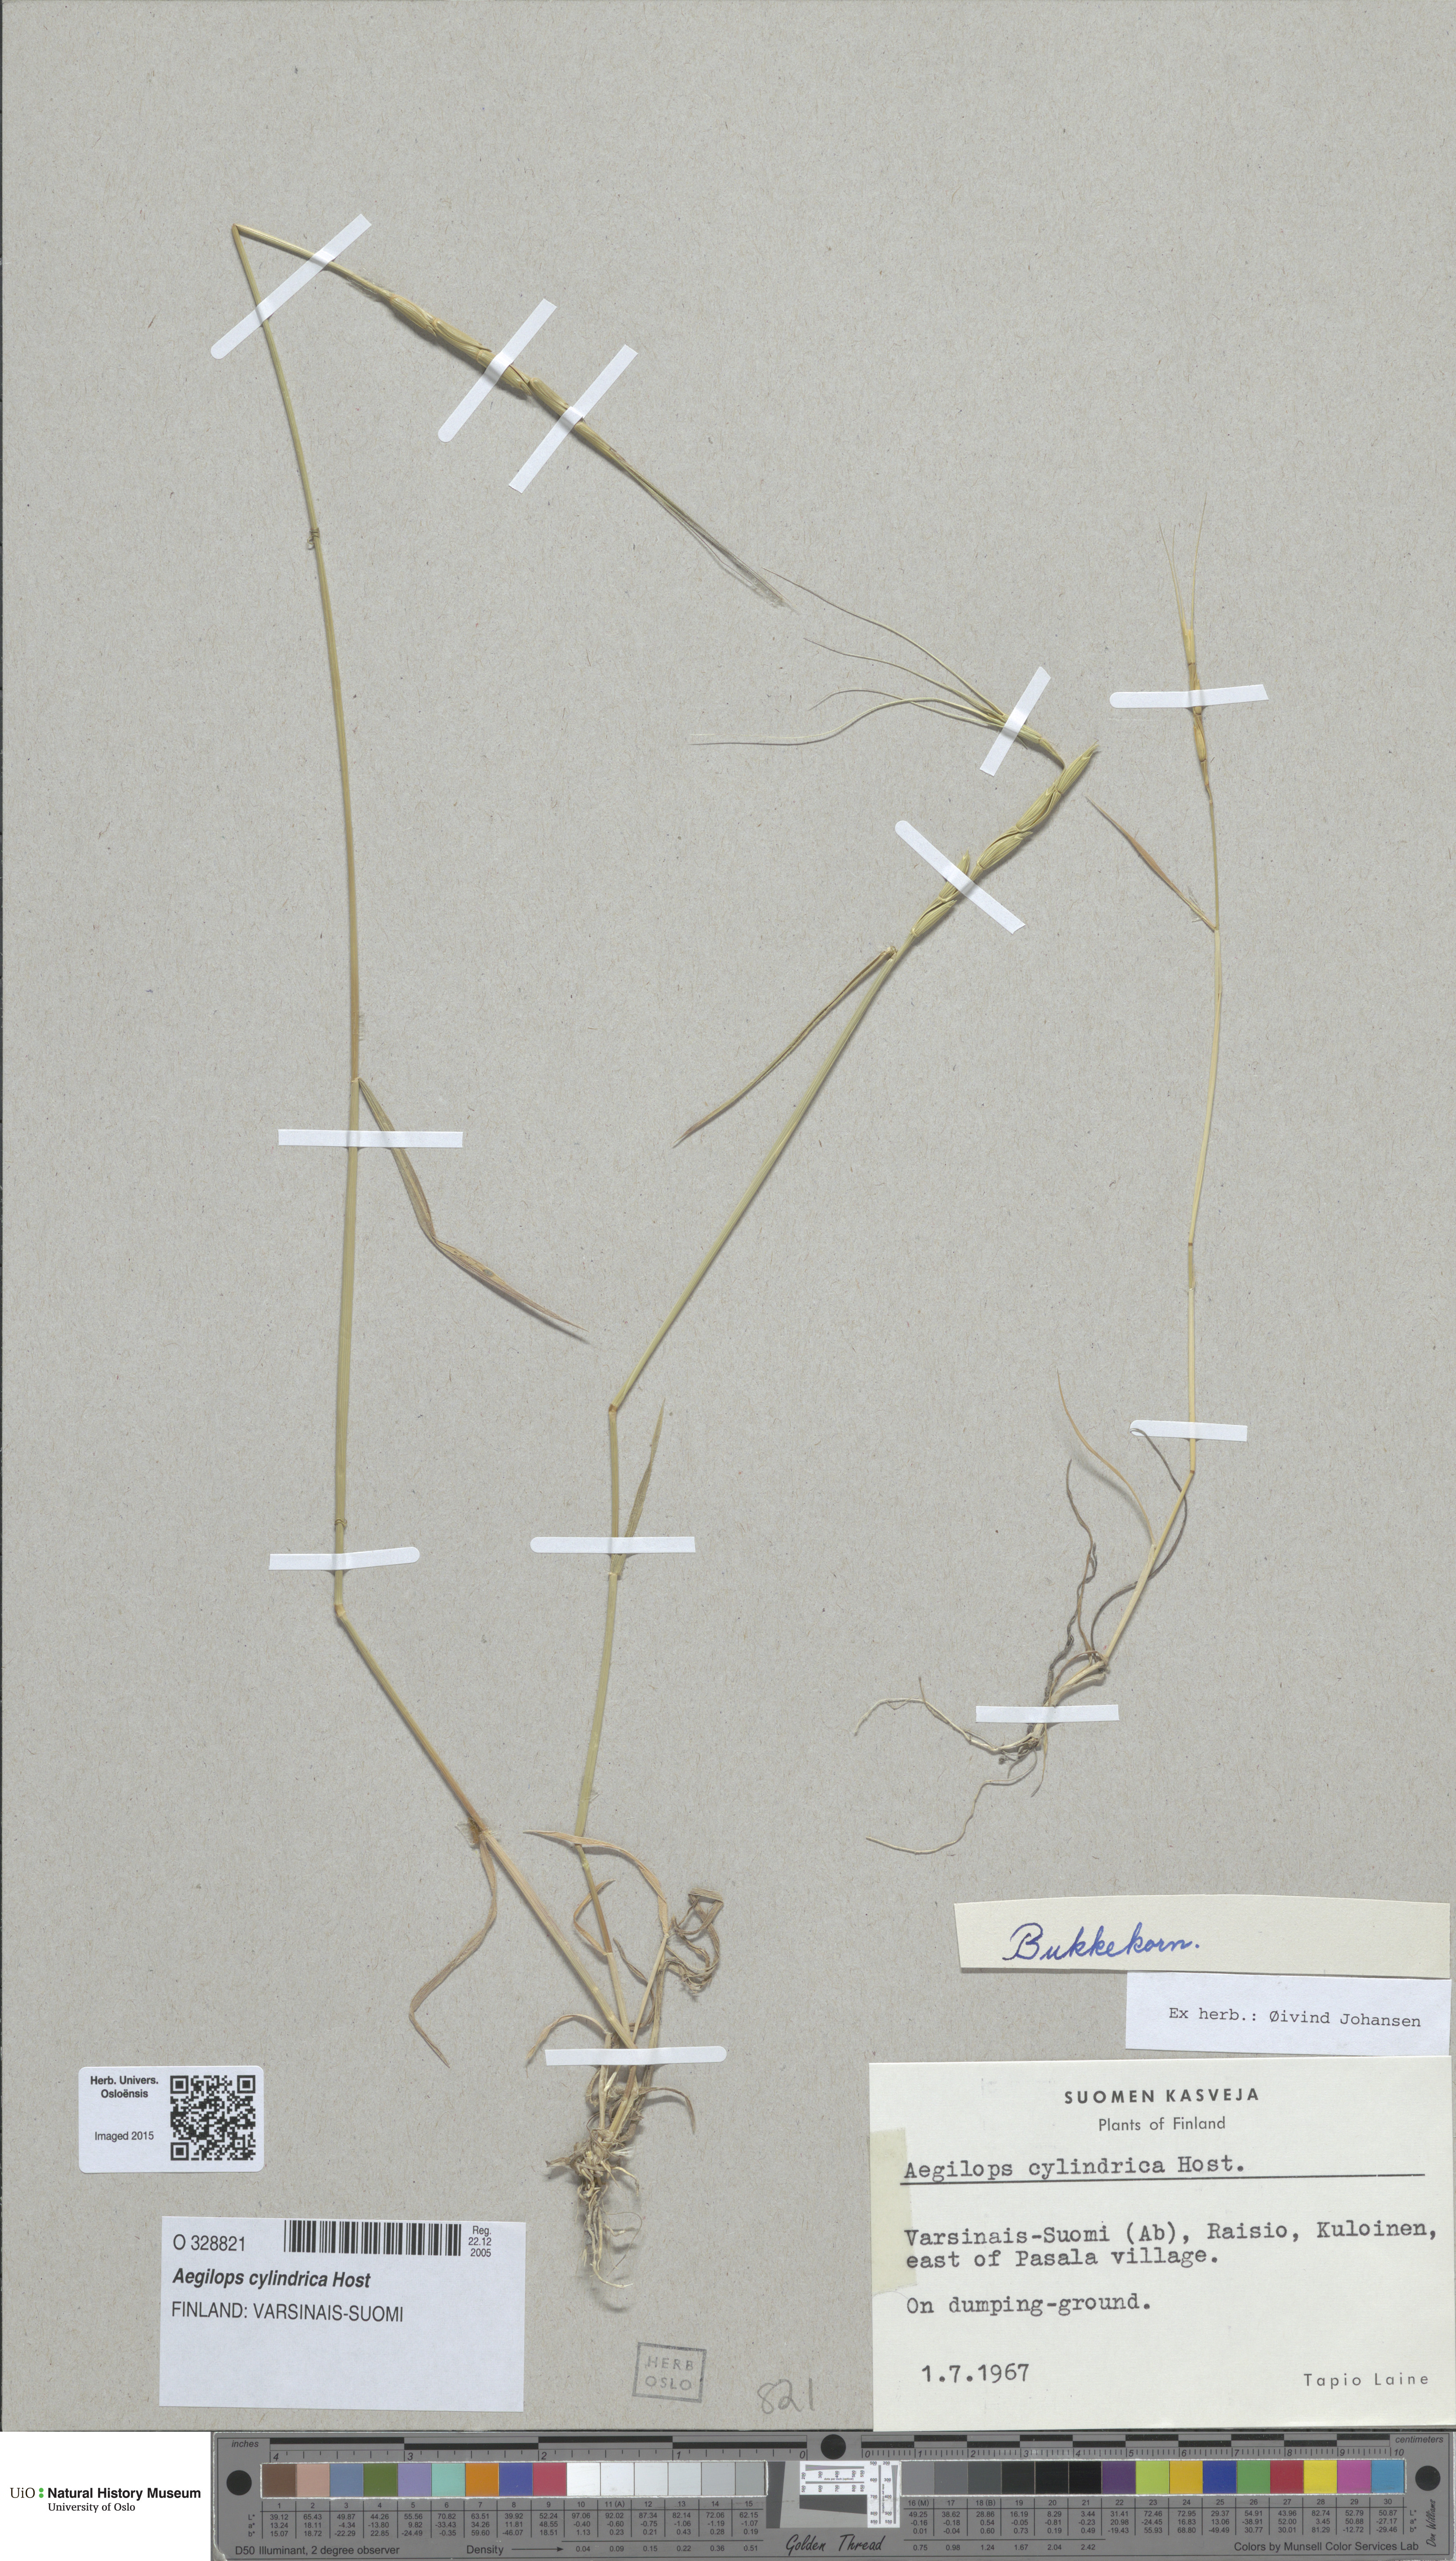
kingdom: Plantae
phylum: Tracheophyta
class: Liliopsida
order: Poales
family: Poaceae
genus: Aegilops
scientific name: Aegilops cylindrica
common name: Jointed goatgrass
